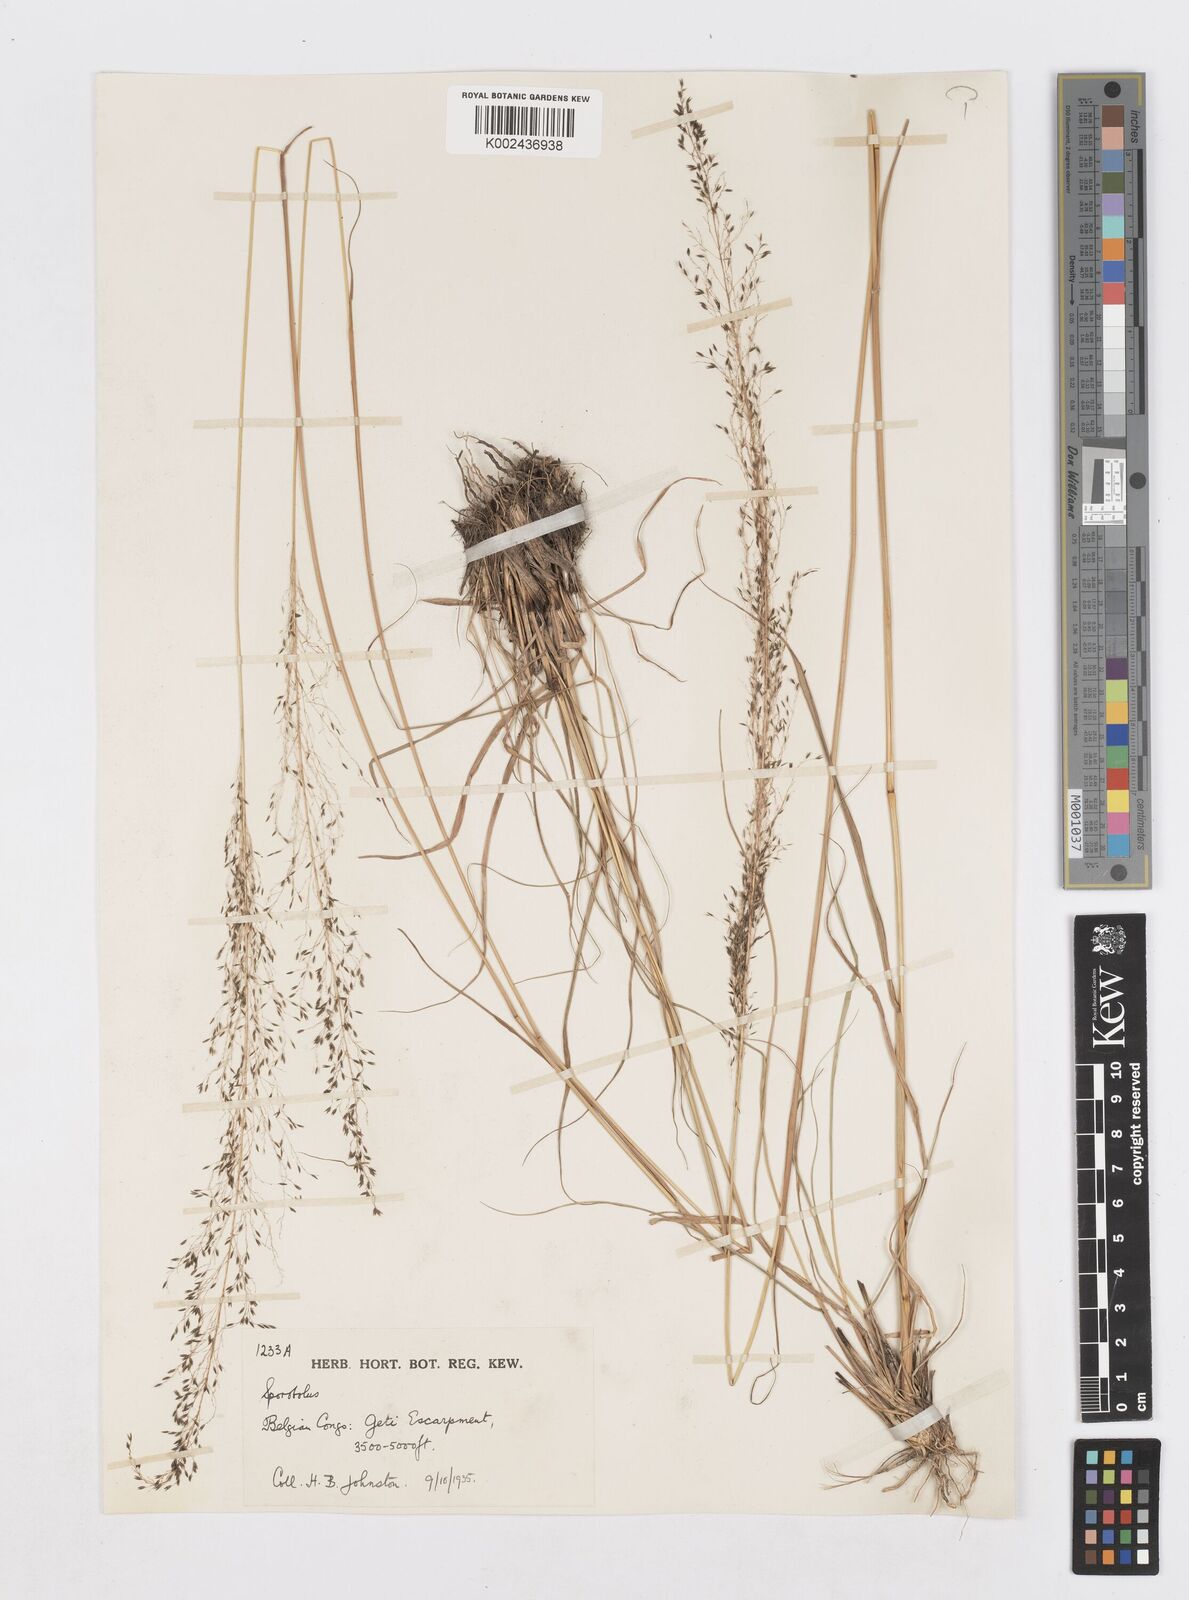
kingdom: Plantae
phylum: Tracheophyta
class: Liliopsida
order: Poales
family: Poaceae
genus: Sporobolus
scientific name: Sporobolus myrianthus
